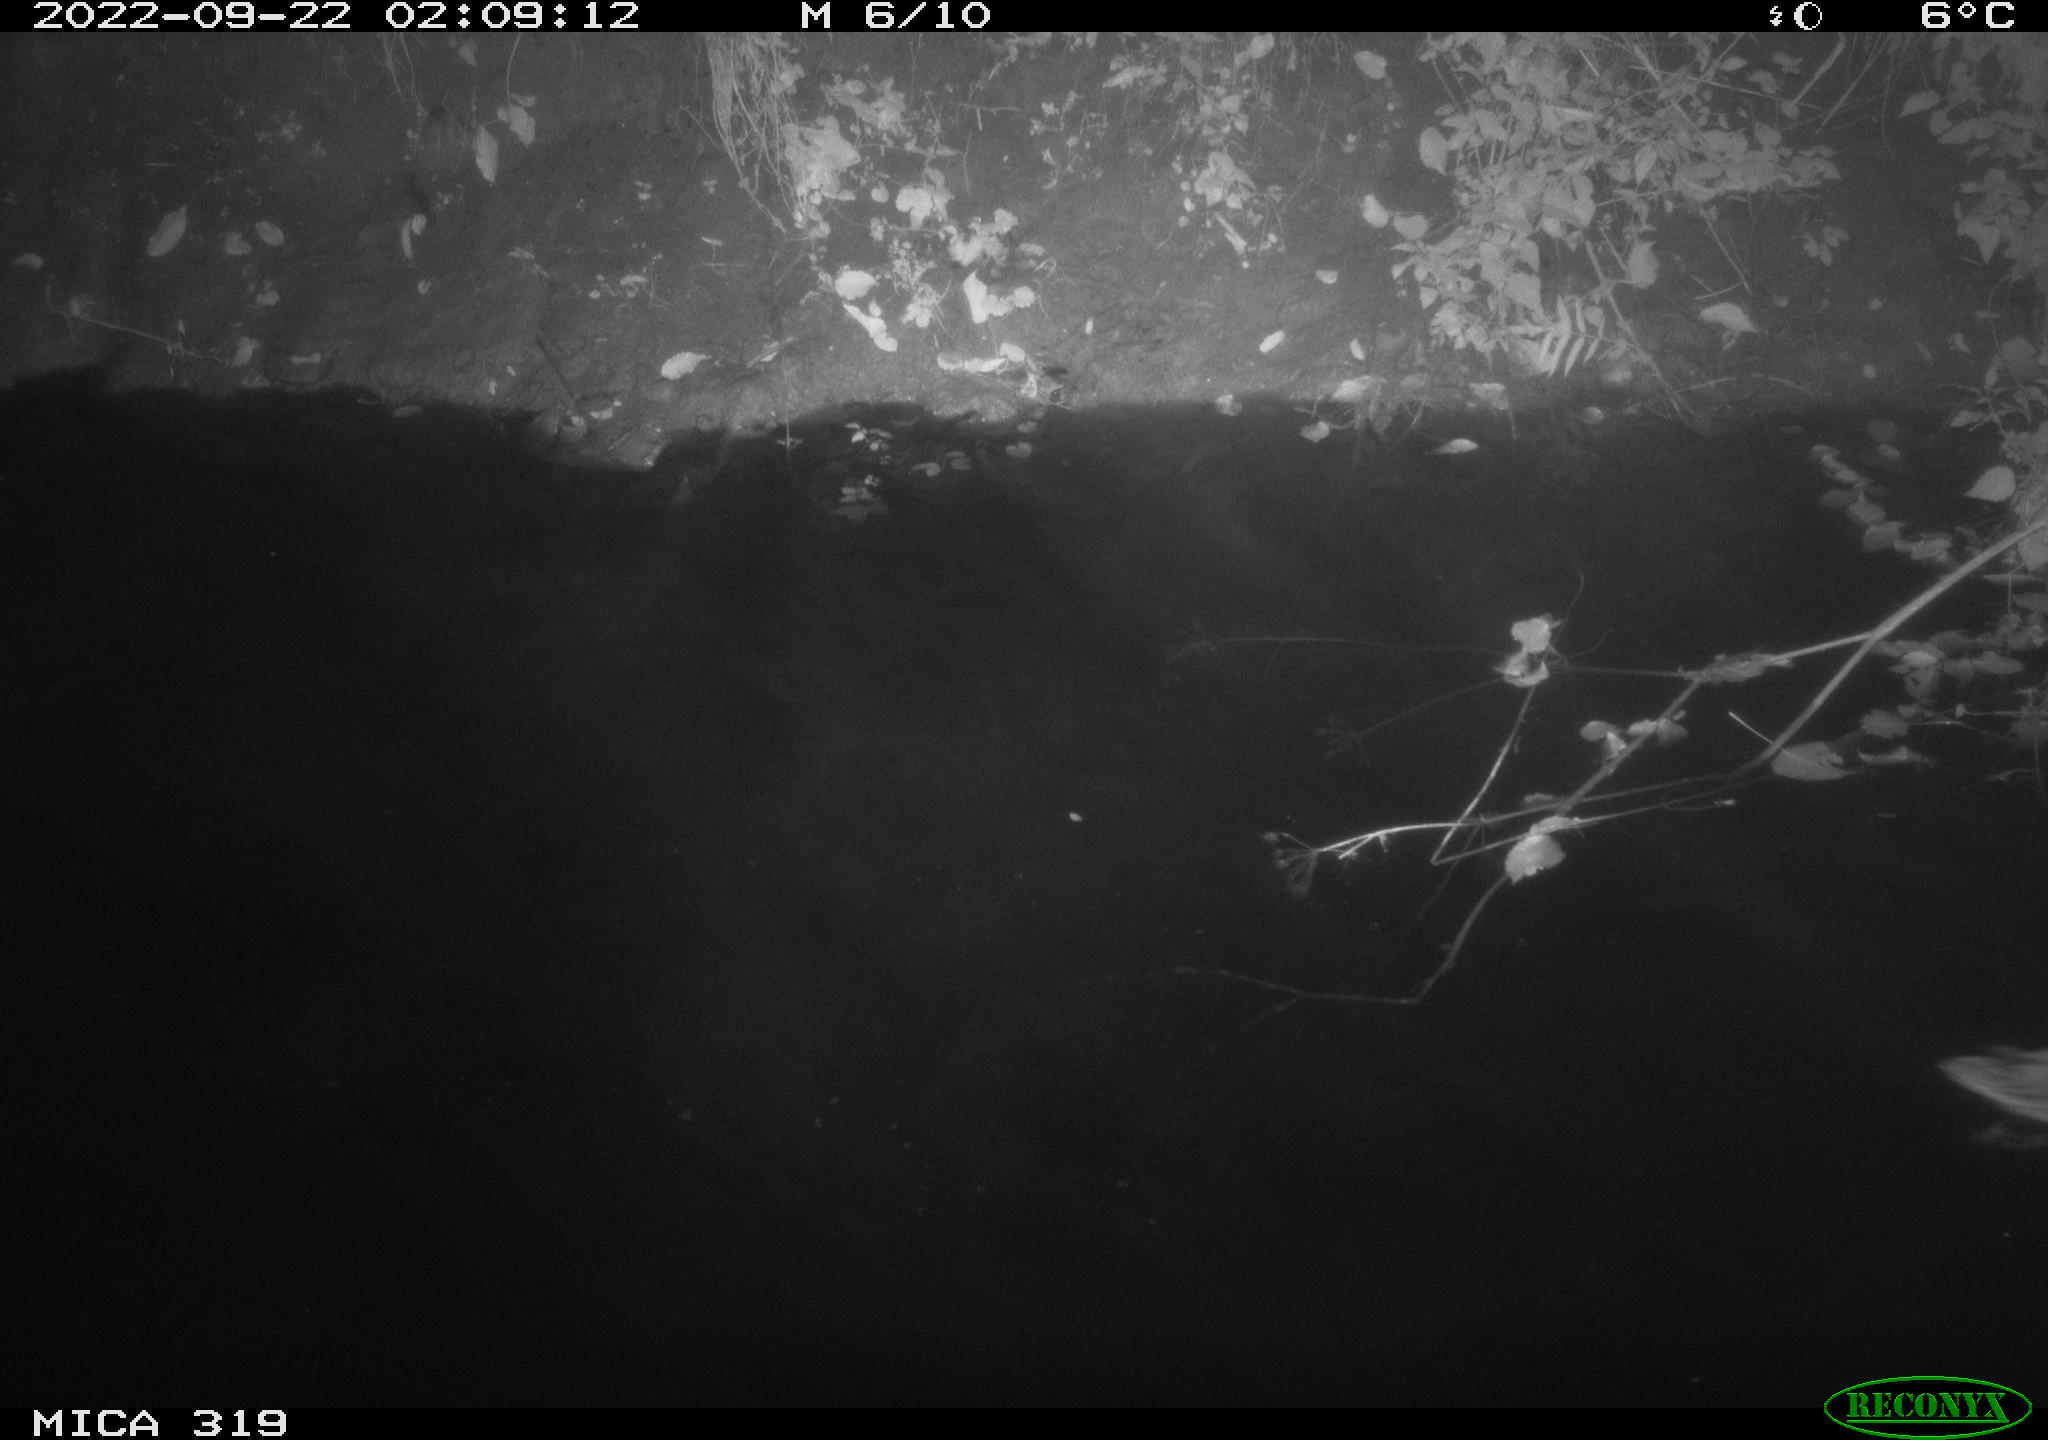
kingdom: Animalia
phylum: Chordata
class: Aves
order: Anseriformes
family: Anatidae
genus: Anas
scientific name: Anas
